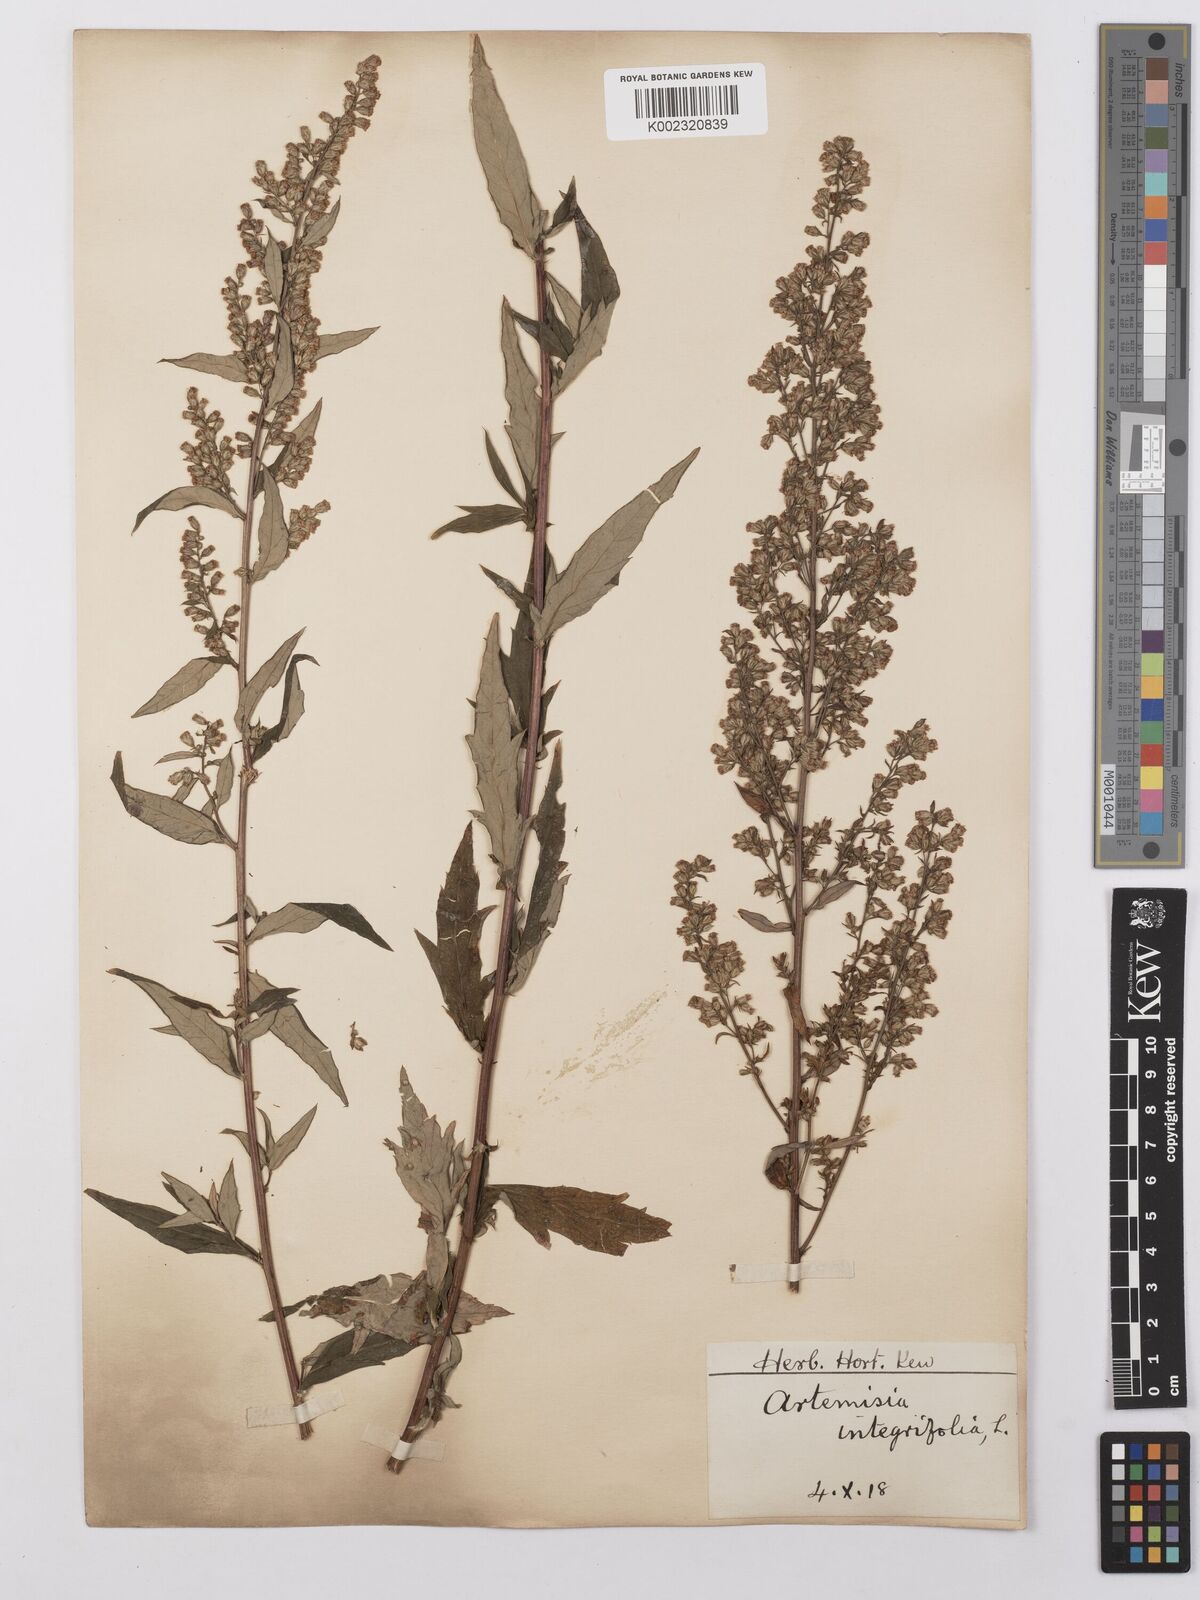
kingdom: Plantae
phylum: Tracheophyta
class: Magnoliopsida
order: Asterales
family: Asteraceae
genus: Artemisia
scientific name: Artemisia integrifolia
